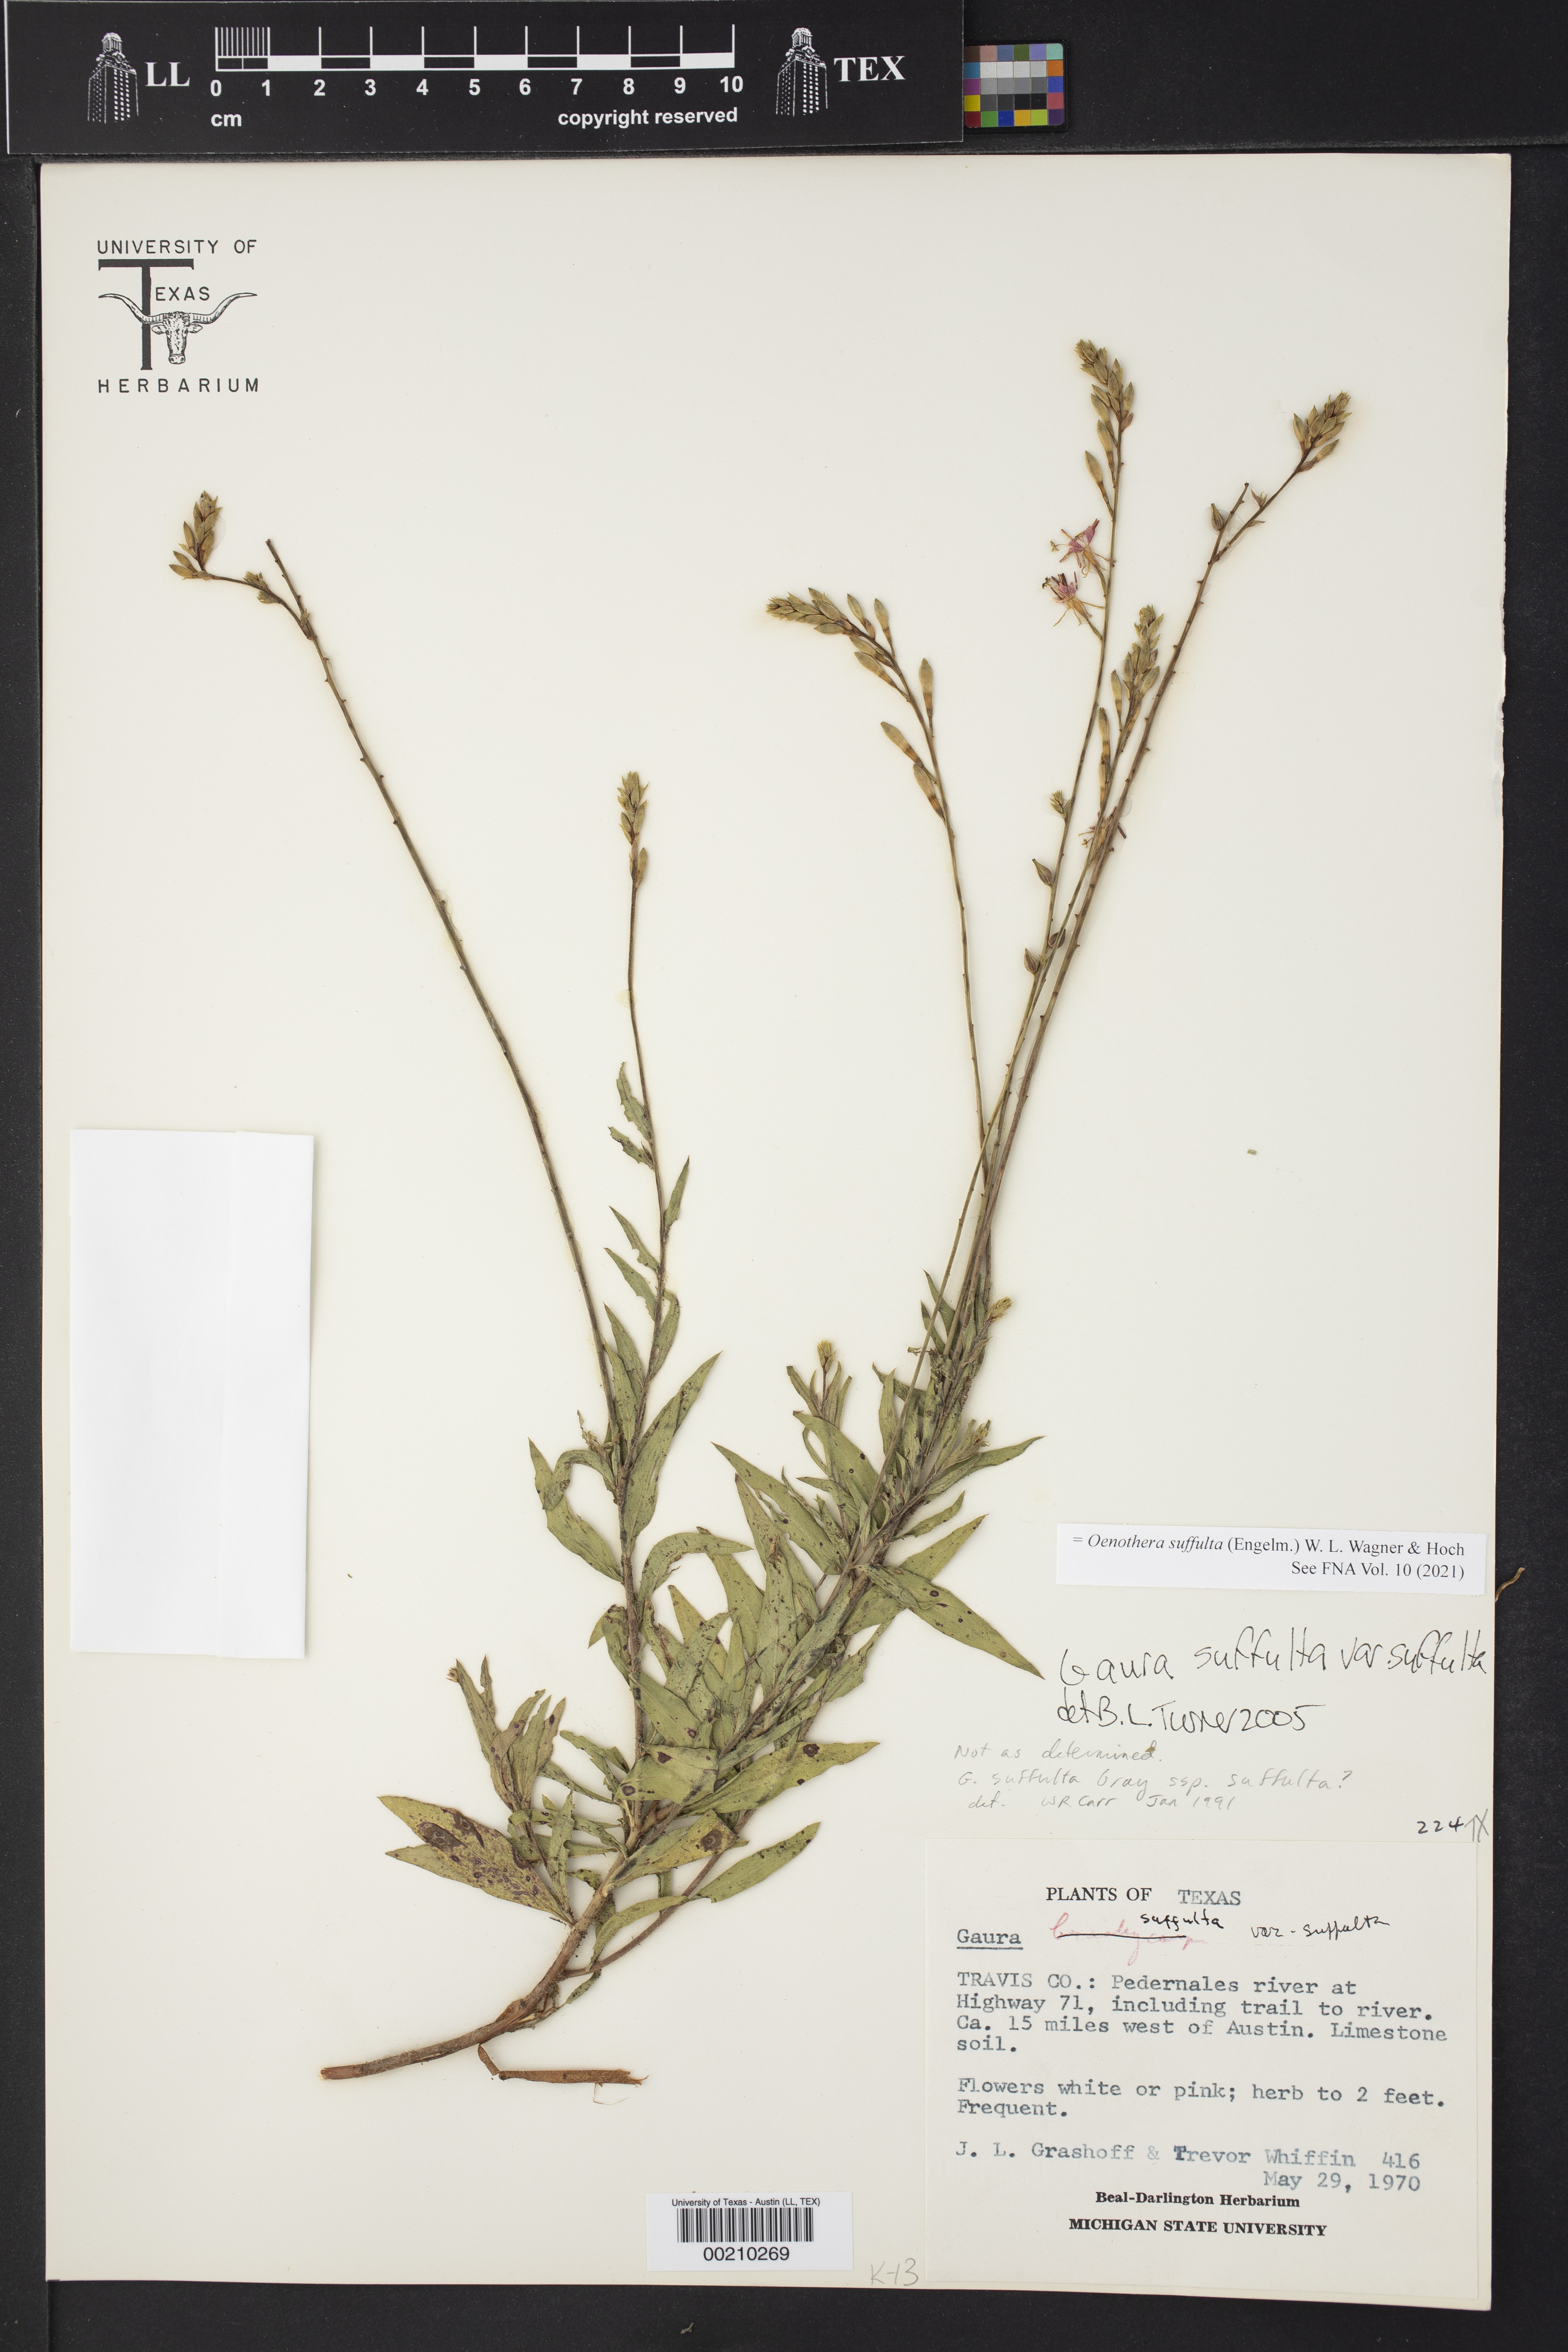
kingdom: Plantae
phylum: Tracheophyta
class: Magnoliopsida
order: Myrtales
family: Onagraceae
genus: Oenothera
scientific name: Oenothera suffulta
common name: Kisses
